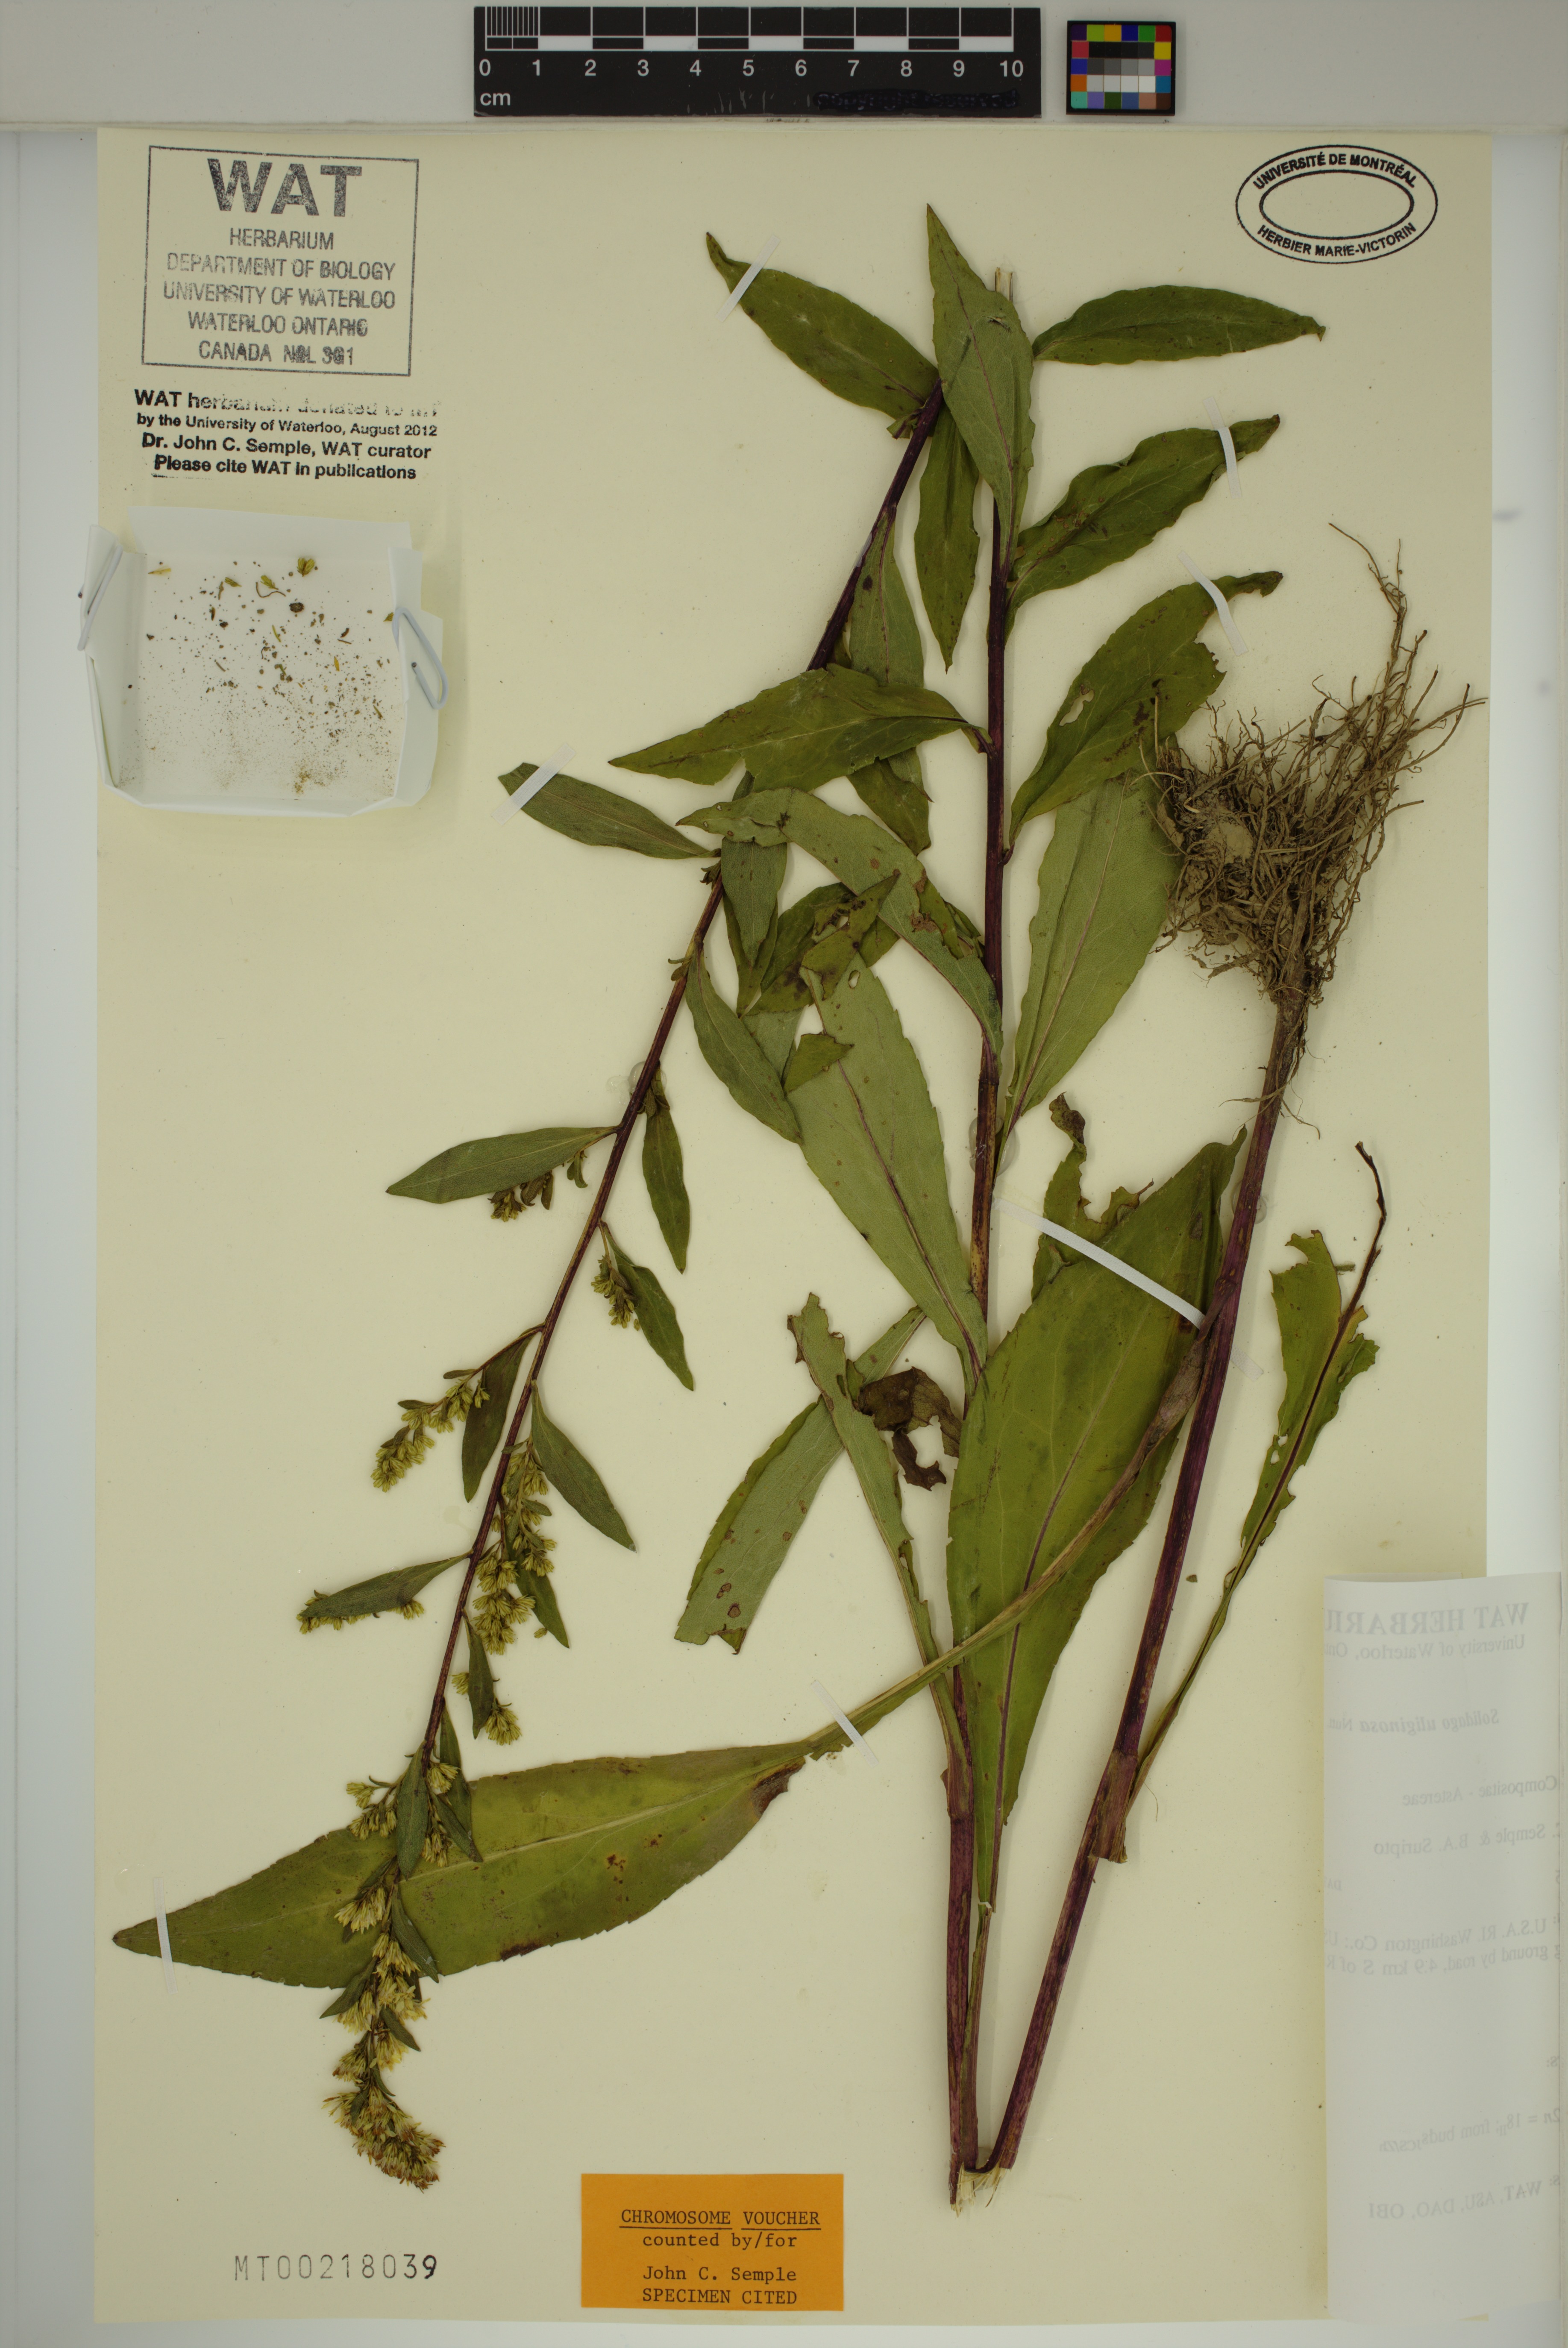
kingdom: Plantae
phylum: Tracheophyta
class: Magnoliopsida
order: Asterales
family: Asteraceae
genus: Solidago
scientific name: Solidago uliginosa
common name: Bog goldenrod
